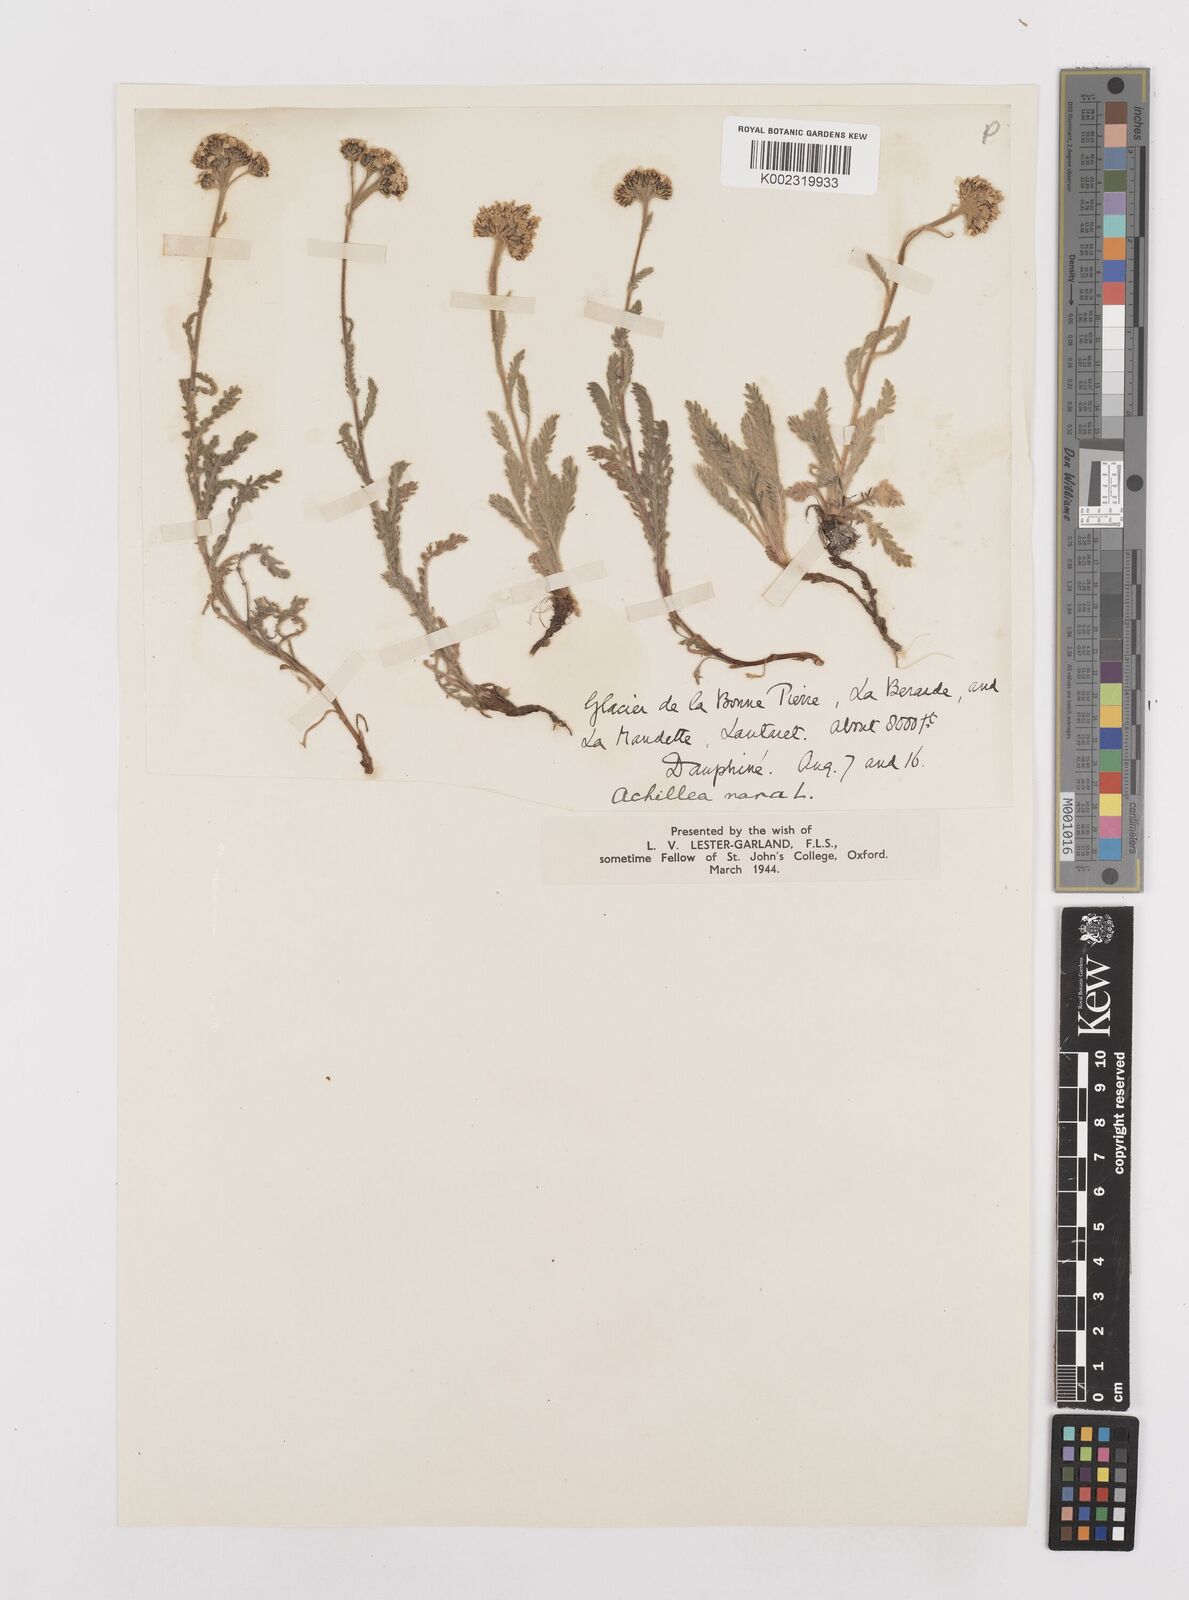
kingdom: Plantae
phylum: Tracheophyta
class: Magnoliopsida
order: Asterales
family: Asteraceae
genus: Achillea
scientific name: Achillea
